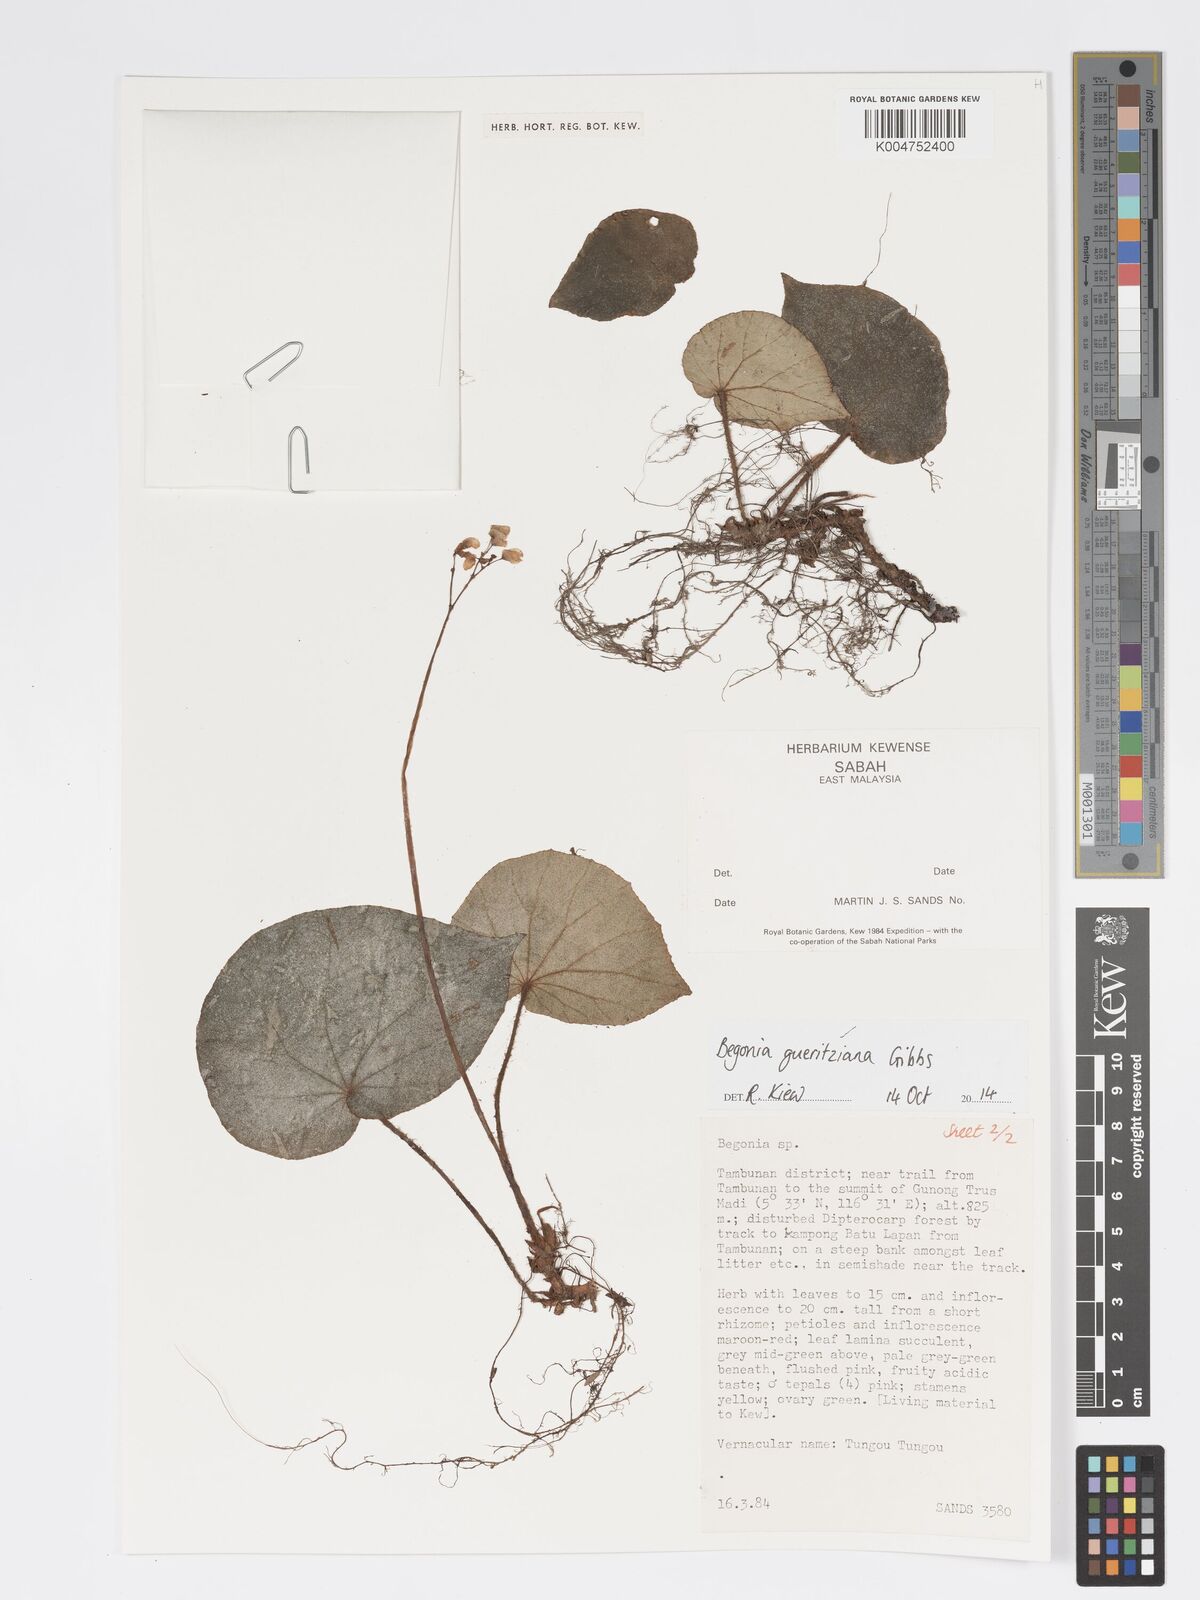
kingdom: Plantae
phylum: Tracheophyta
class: Magnoliopsida
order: Cucurbitales
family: Begoniaceae
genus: Begonia
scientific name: Begonia gueritziana
